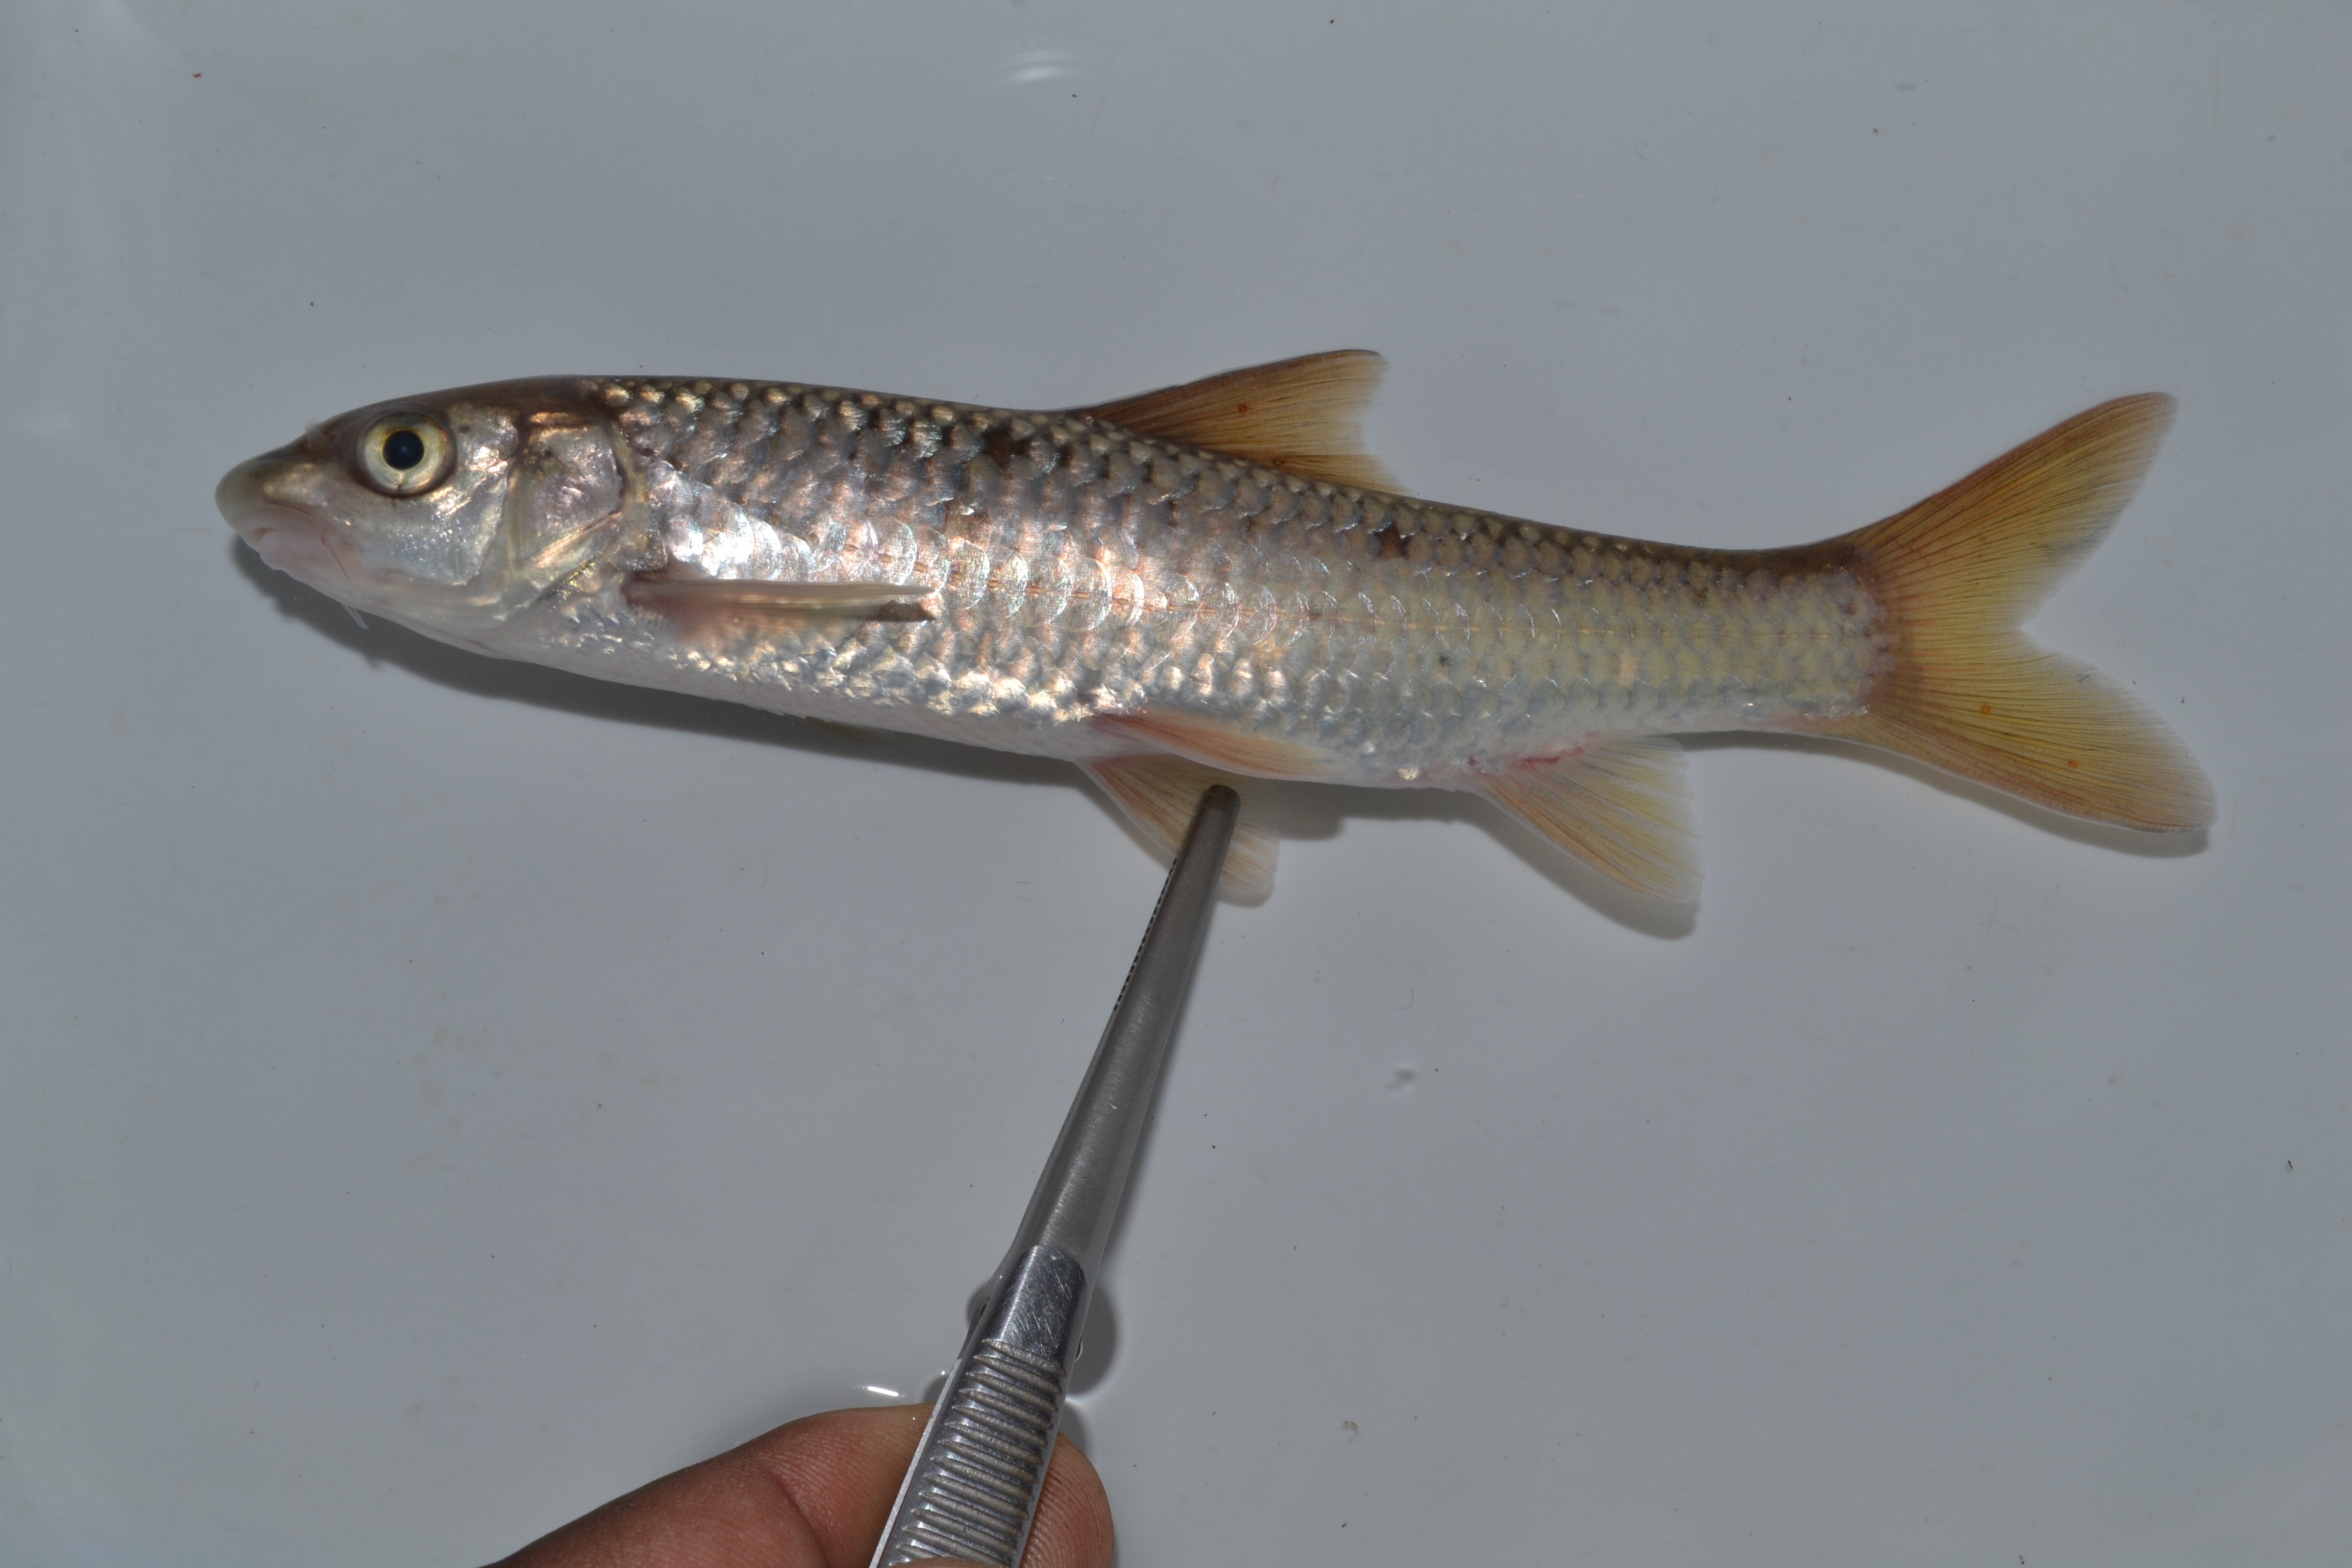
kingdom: Animalia
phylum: Chordata
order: Cypriniformes
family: Cyprinidae
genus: Labeobarbus
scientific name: Labeobarbus natalensis
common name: Scaly
